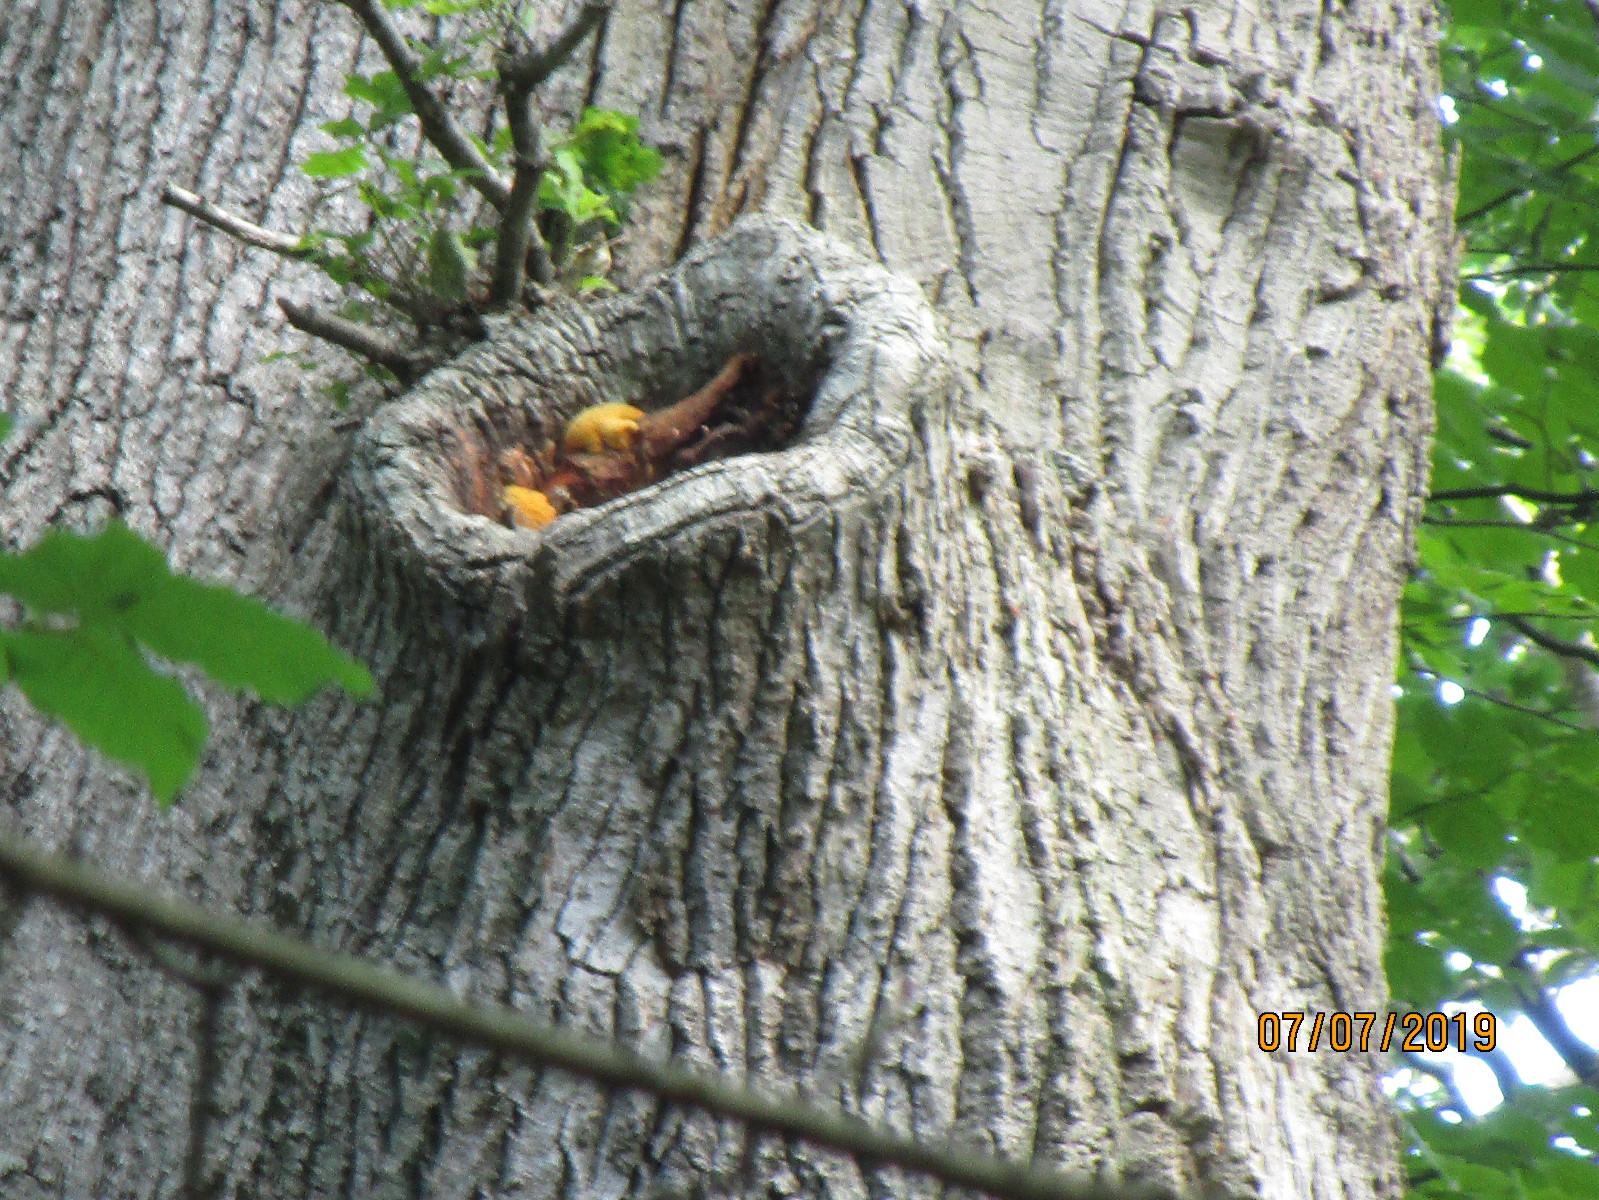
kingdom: Fungi
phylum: Basidiomycota
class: Agaricomycetes
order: Polyporales
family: Phanerochaetaceae
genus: Hapalopilus
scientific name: Hapalopilus croceus
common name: safrangul pragtporesvamp
